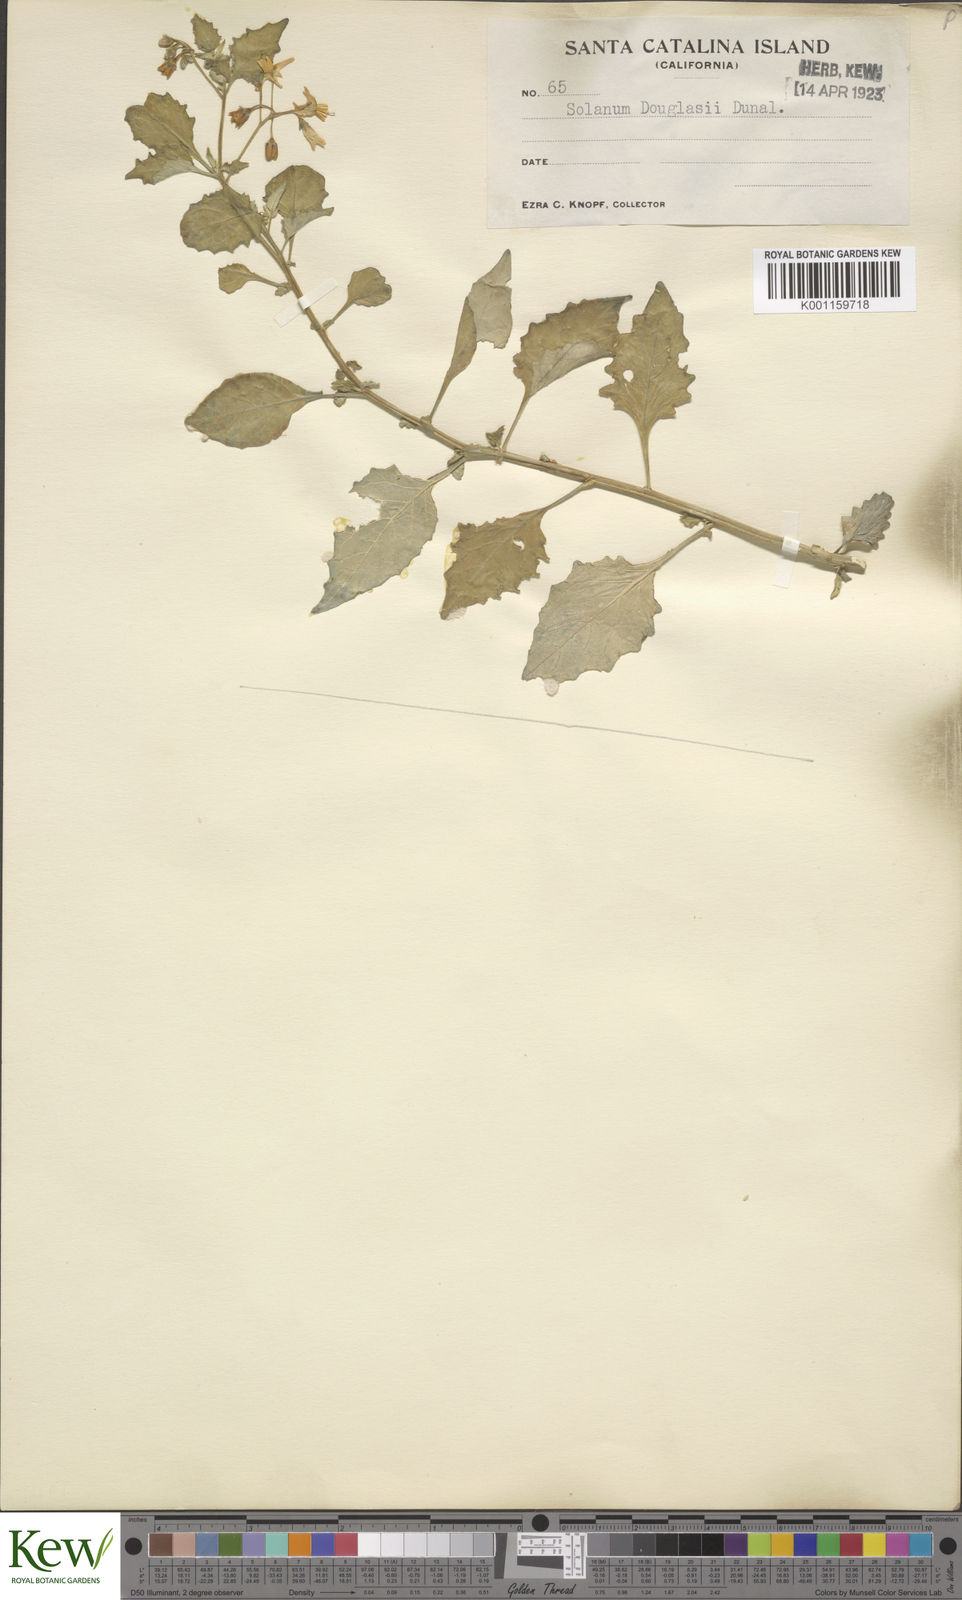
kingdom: Plantae
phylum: Tracheophyta
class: Magnoliopsida
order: Solanales
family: Solanaceae
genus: Solanum
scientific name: Solanum douglasii
